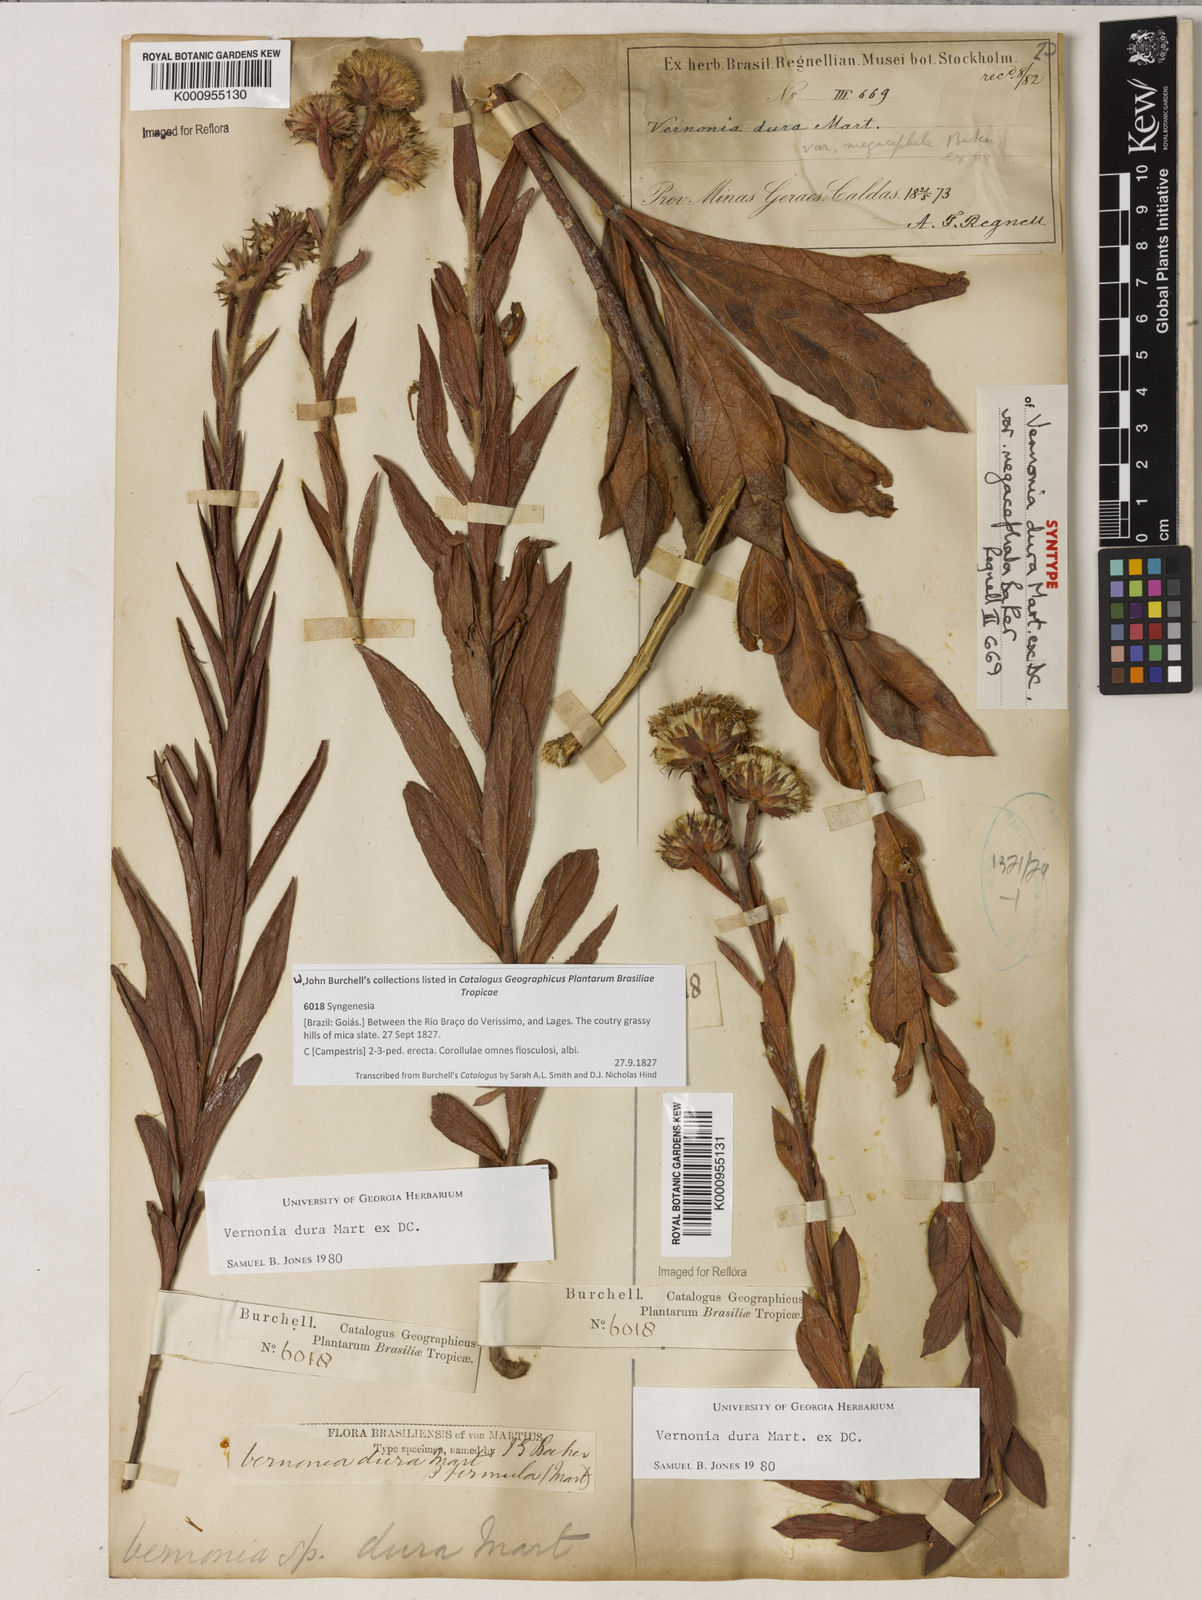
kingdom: Plantae
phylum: Tracheophyta
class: Magnoliopsida
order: Asterales
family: Asteraceae
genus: Lessingianthus
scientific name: Lessingianthus durus
